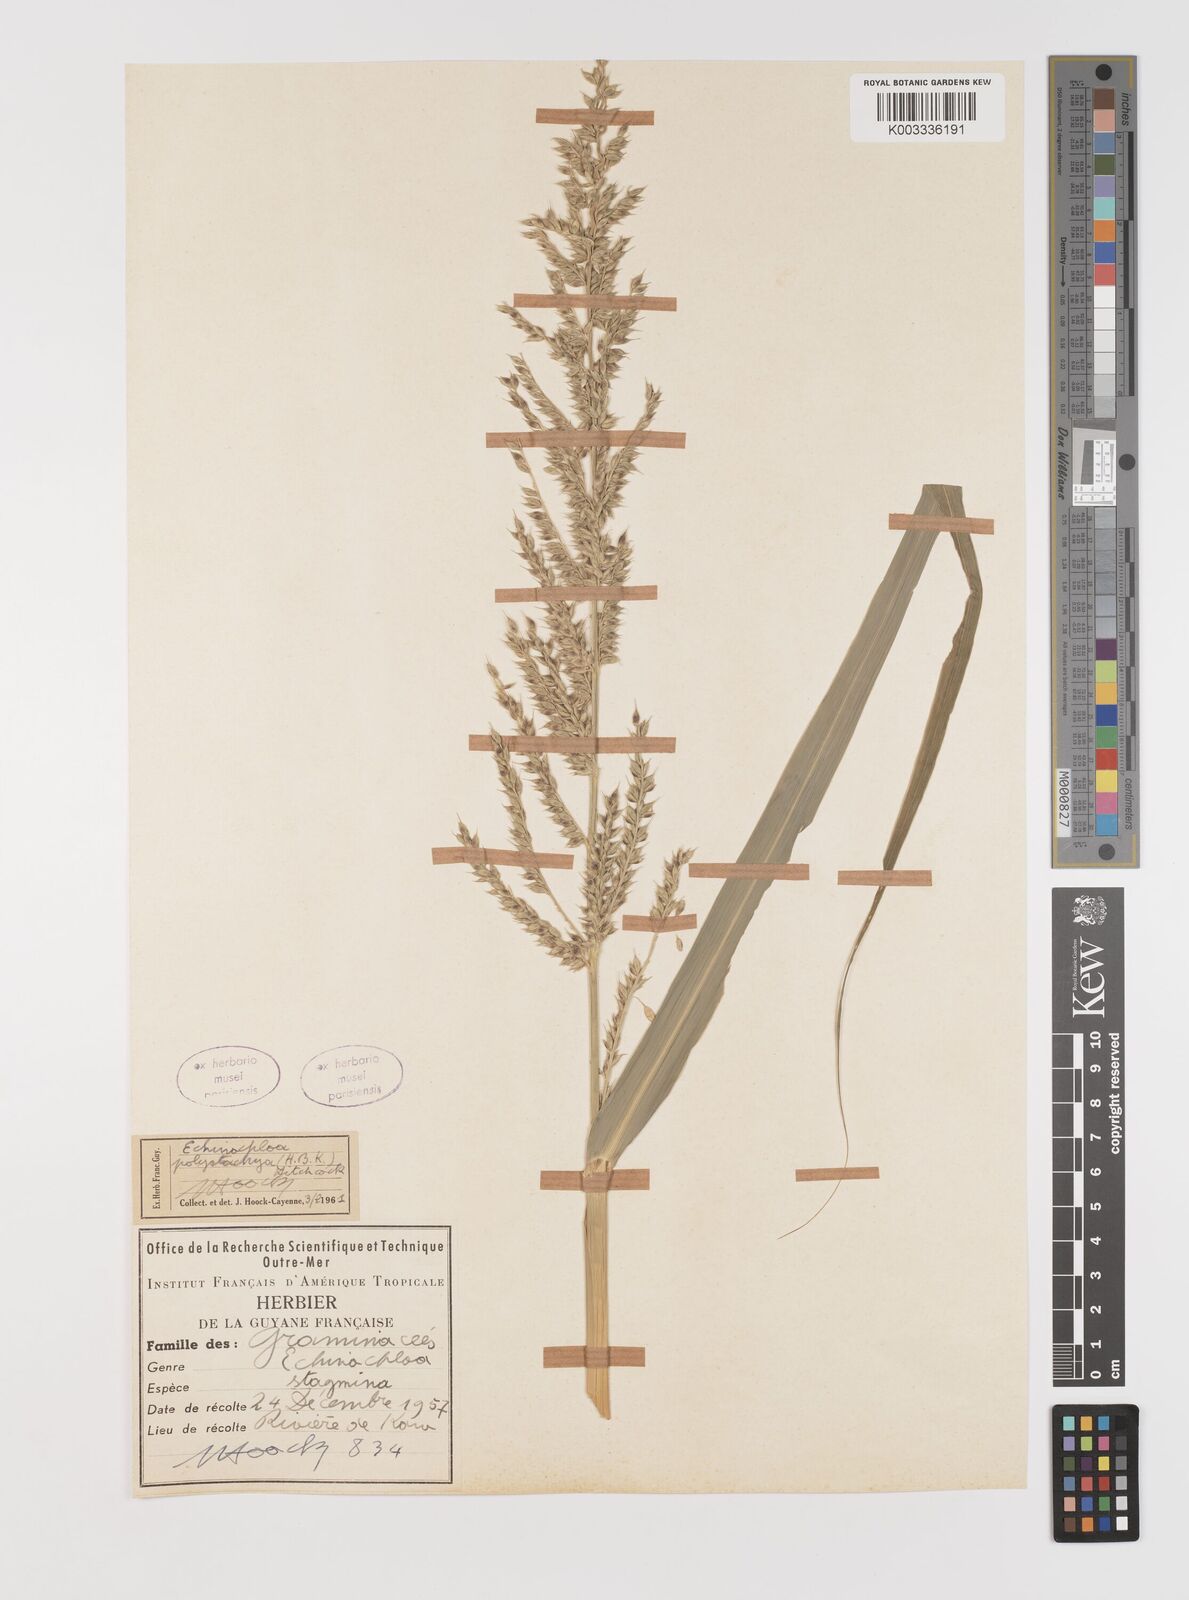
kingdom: Plantae
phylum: Tracheophyta
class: Liliopsida
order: Poales
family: Poaceae
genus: Echinochloa
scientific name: Echinochloa polystachya
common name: Creeping river grass
